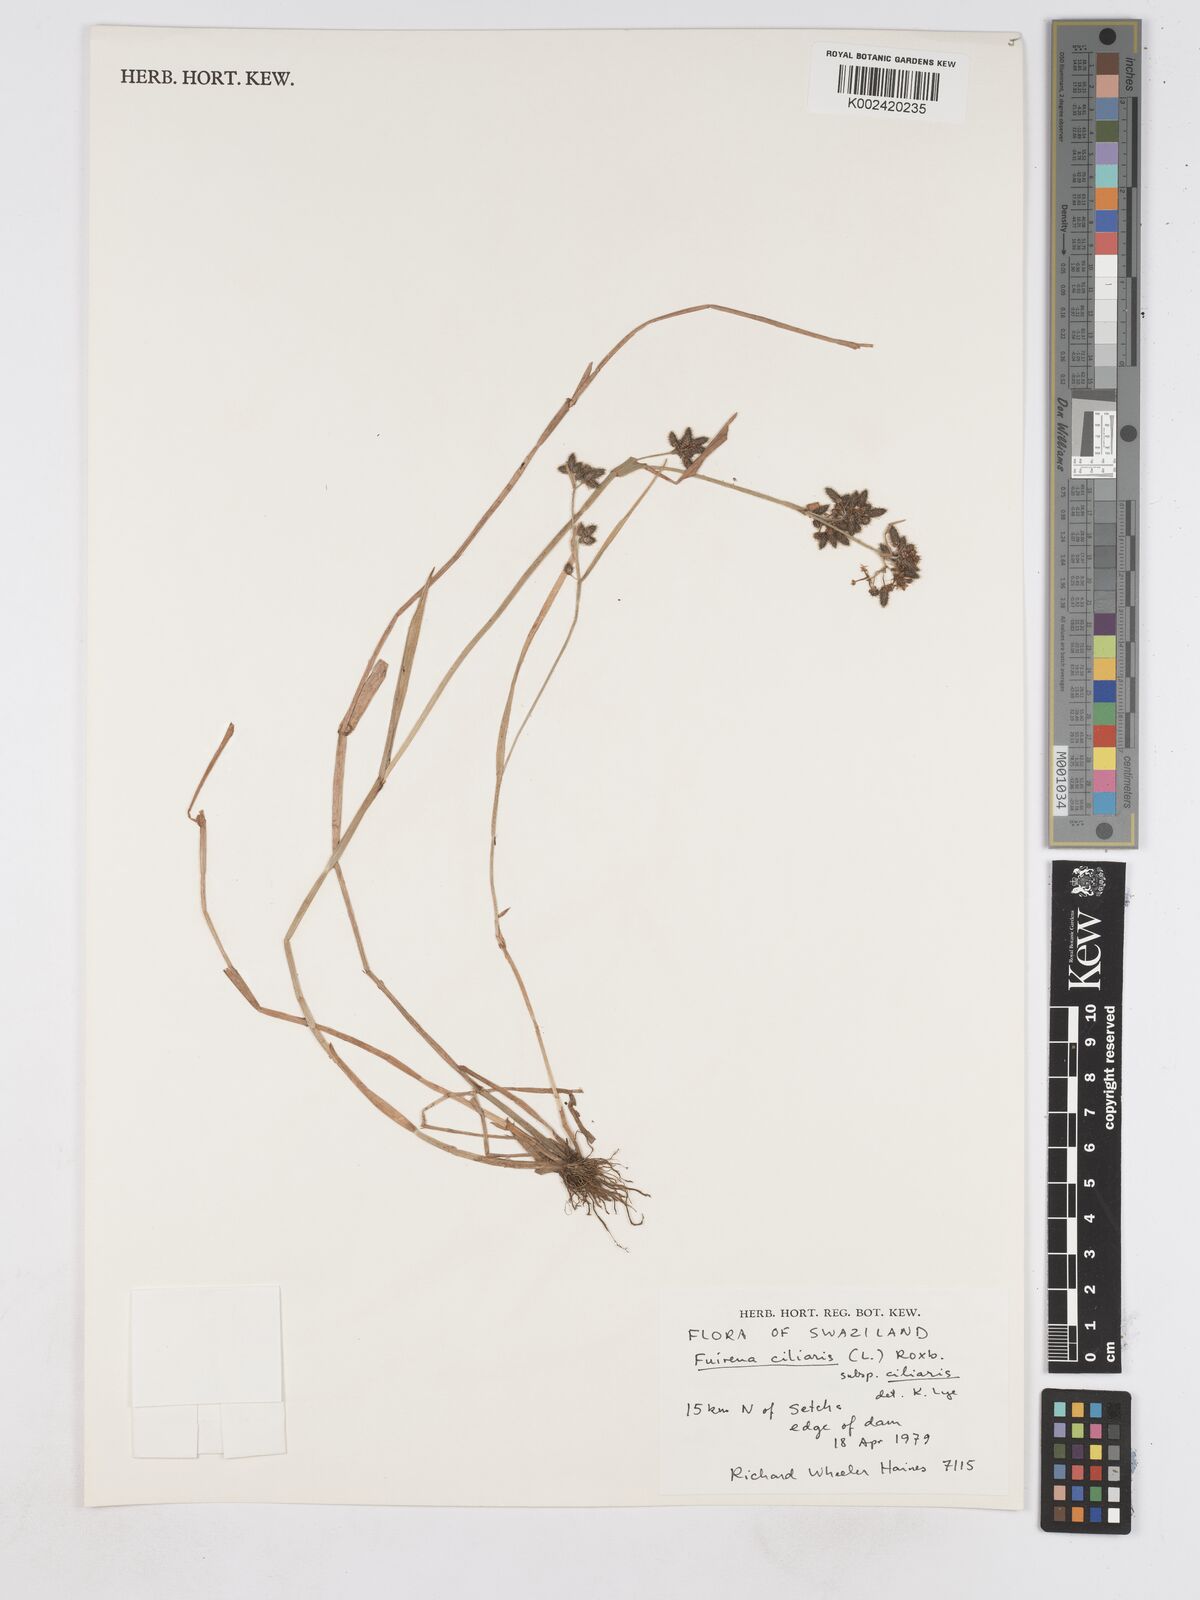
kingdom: Plantae
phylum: Tracheophyta
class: Liliopsida
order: Poales
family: Cyperaceae
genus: Fuirena
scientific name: Fuirena ciliaris
